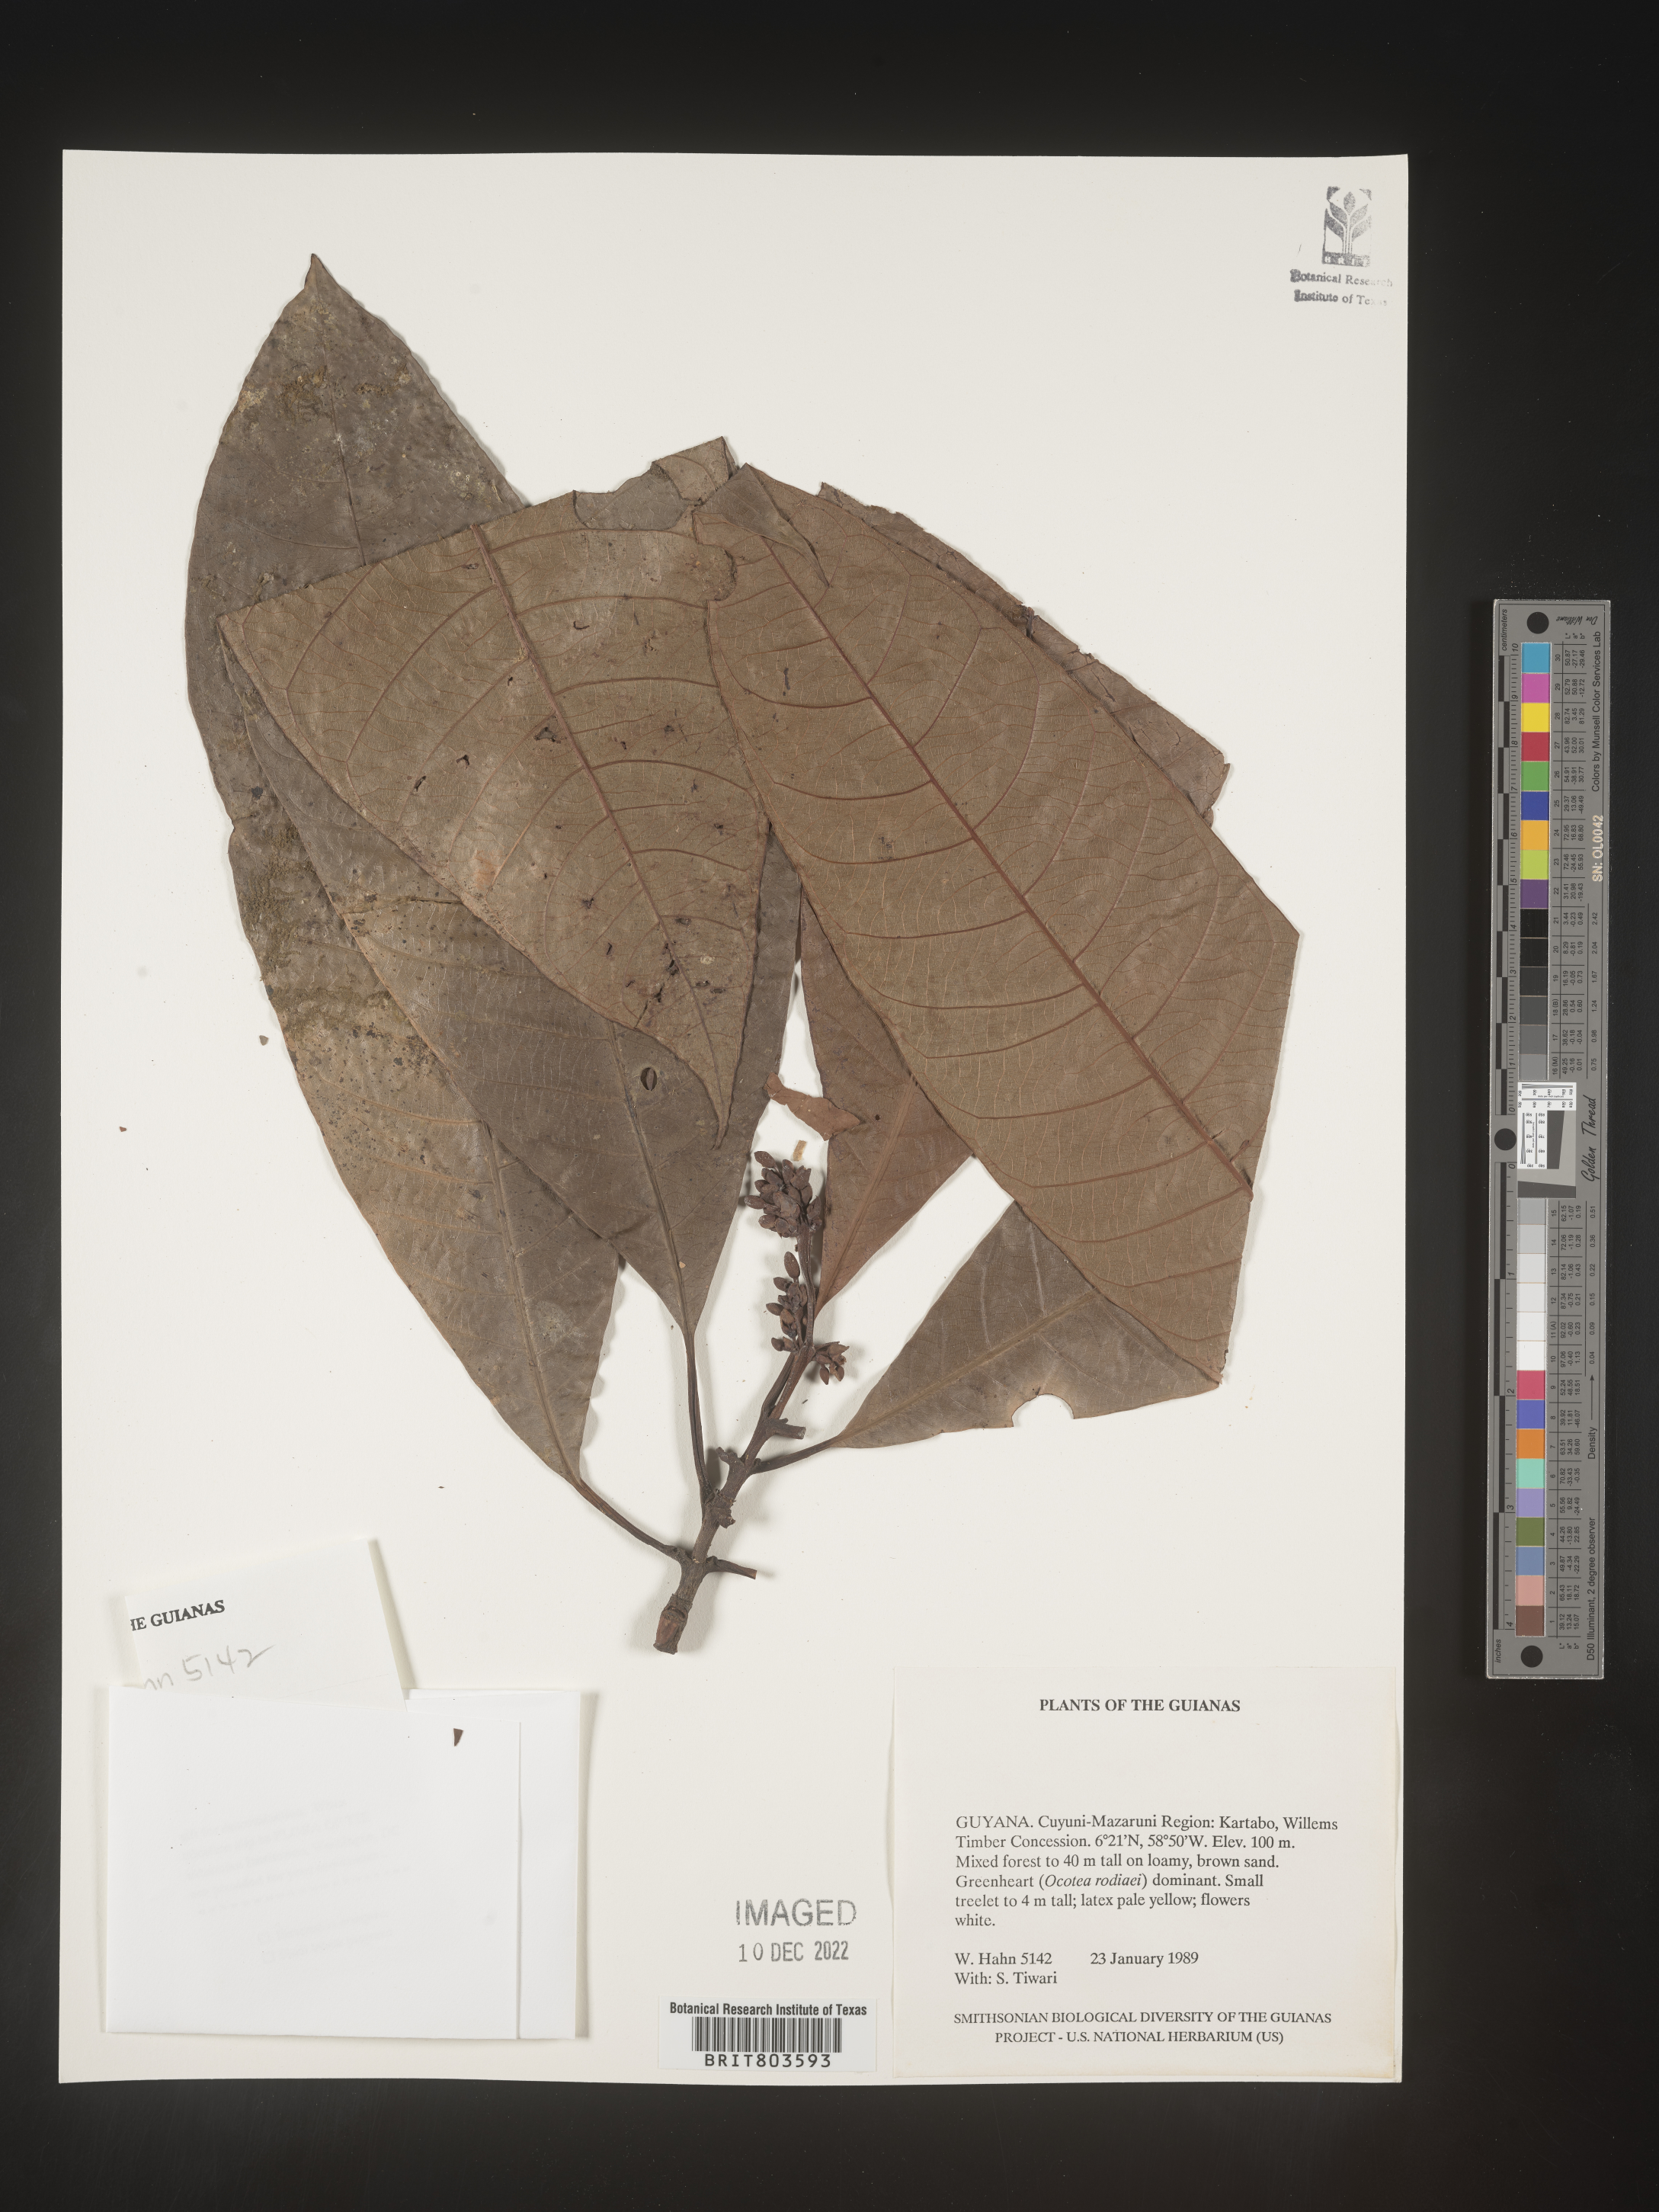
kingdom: Plantae
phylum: Tracheophyta
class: Magnoliopsida
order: Malpighiales
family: Clusiaceae
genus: Tovomita
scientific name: Tovomita
